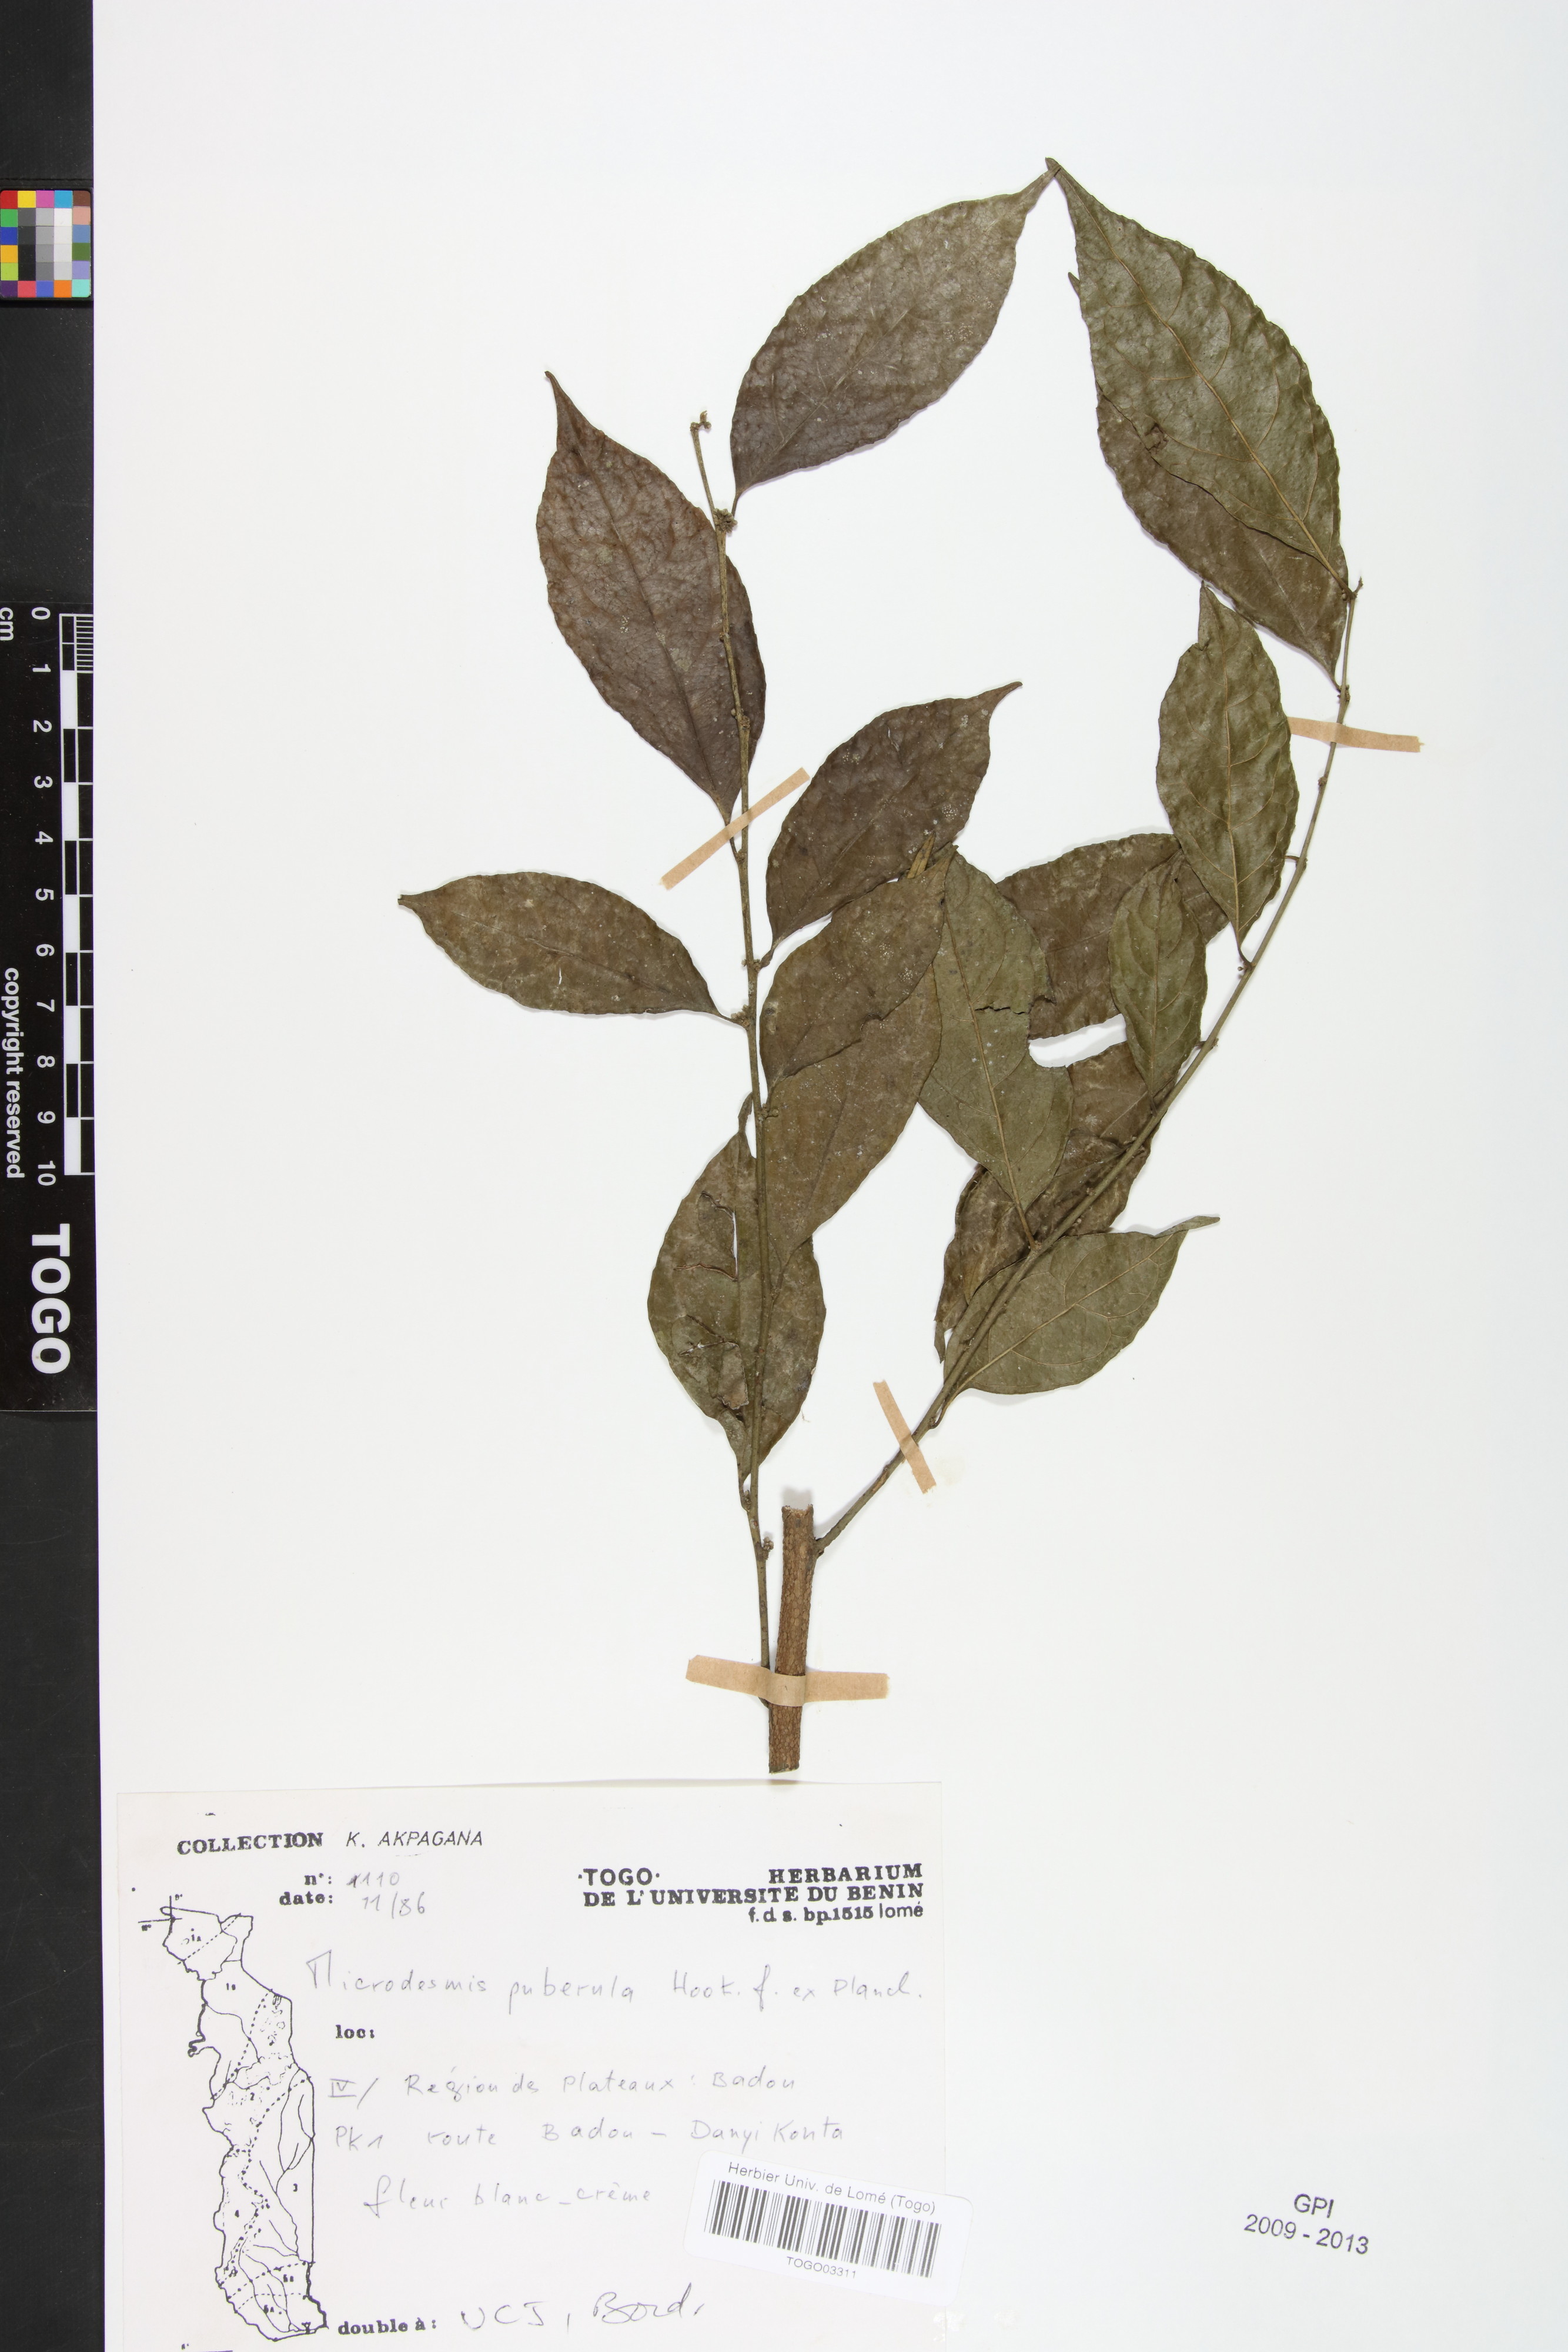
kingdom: Plantae
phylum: Tracheophyta
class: Magnoliopsida
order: Malpighiales
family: Pandaceae
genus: Microdesmis
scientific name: Microdesmis puberula
